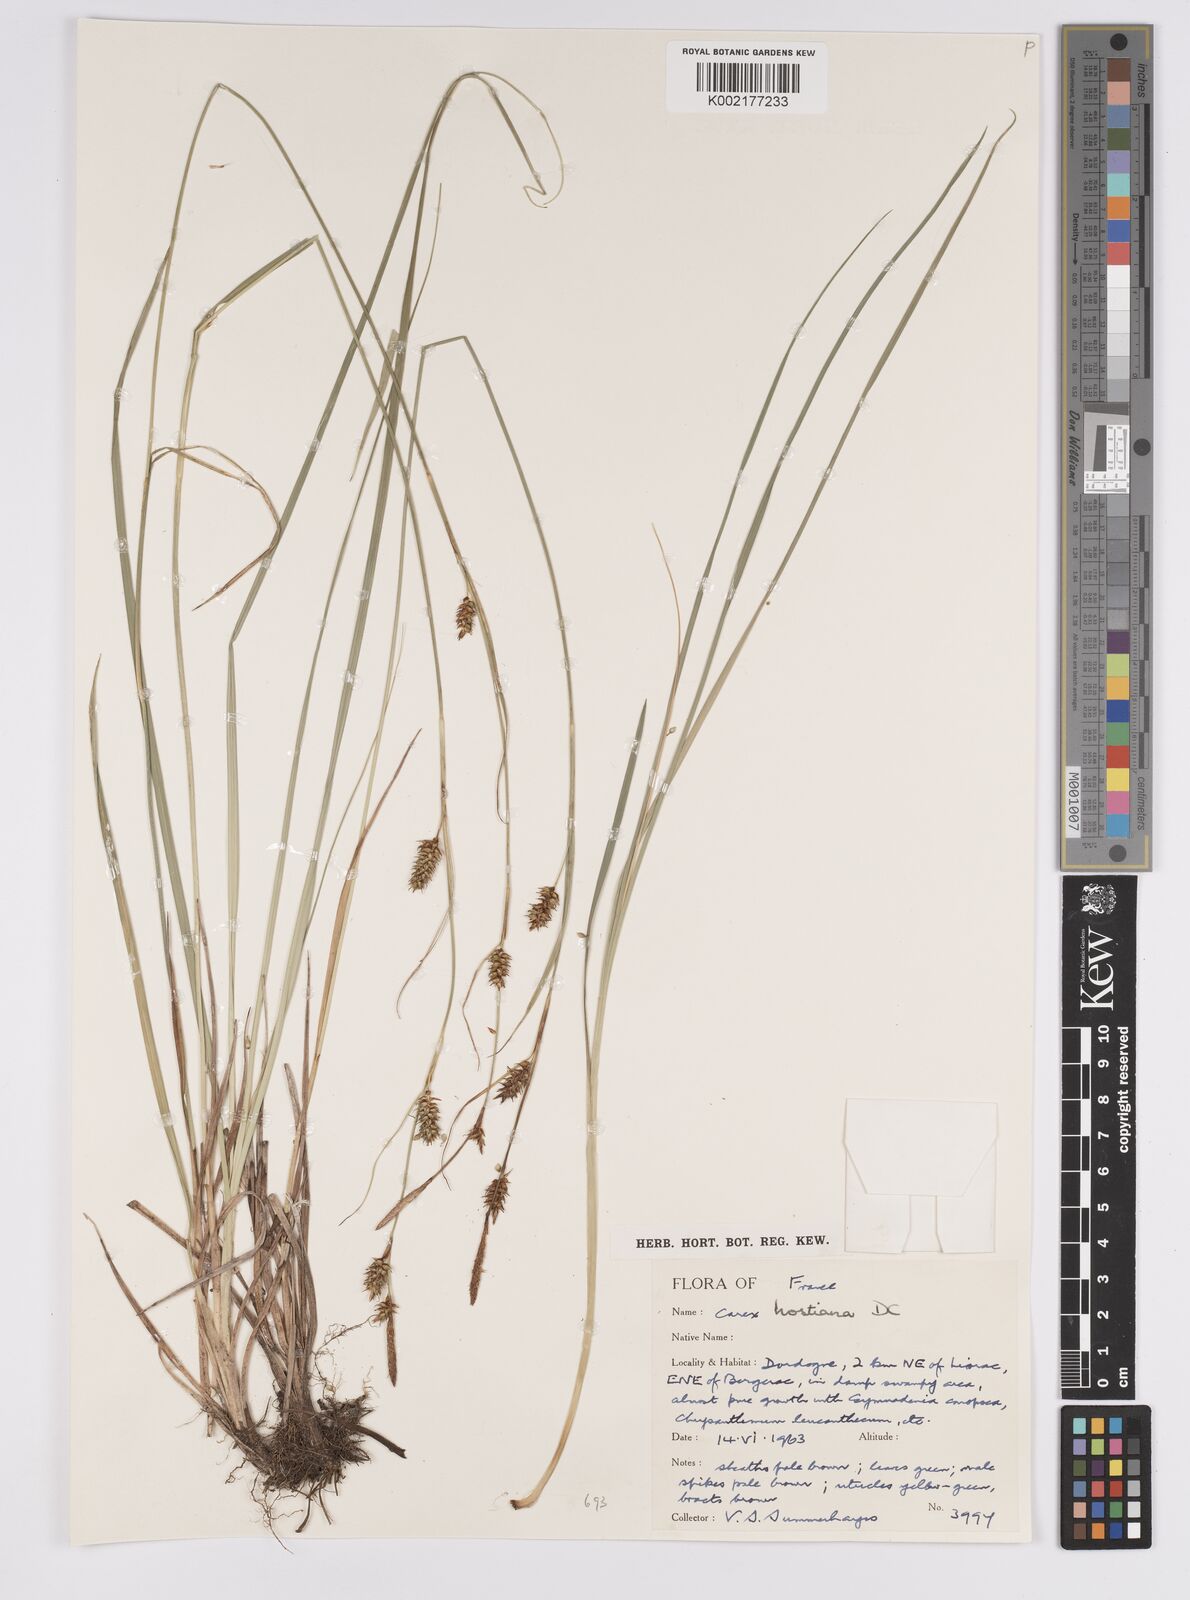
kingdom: Plantae
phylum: Tracheophyta
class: Liliopsida
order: Poales
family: Cyperaceae
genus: Carex
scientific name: Carex hostiana
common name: Tawny sedge
